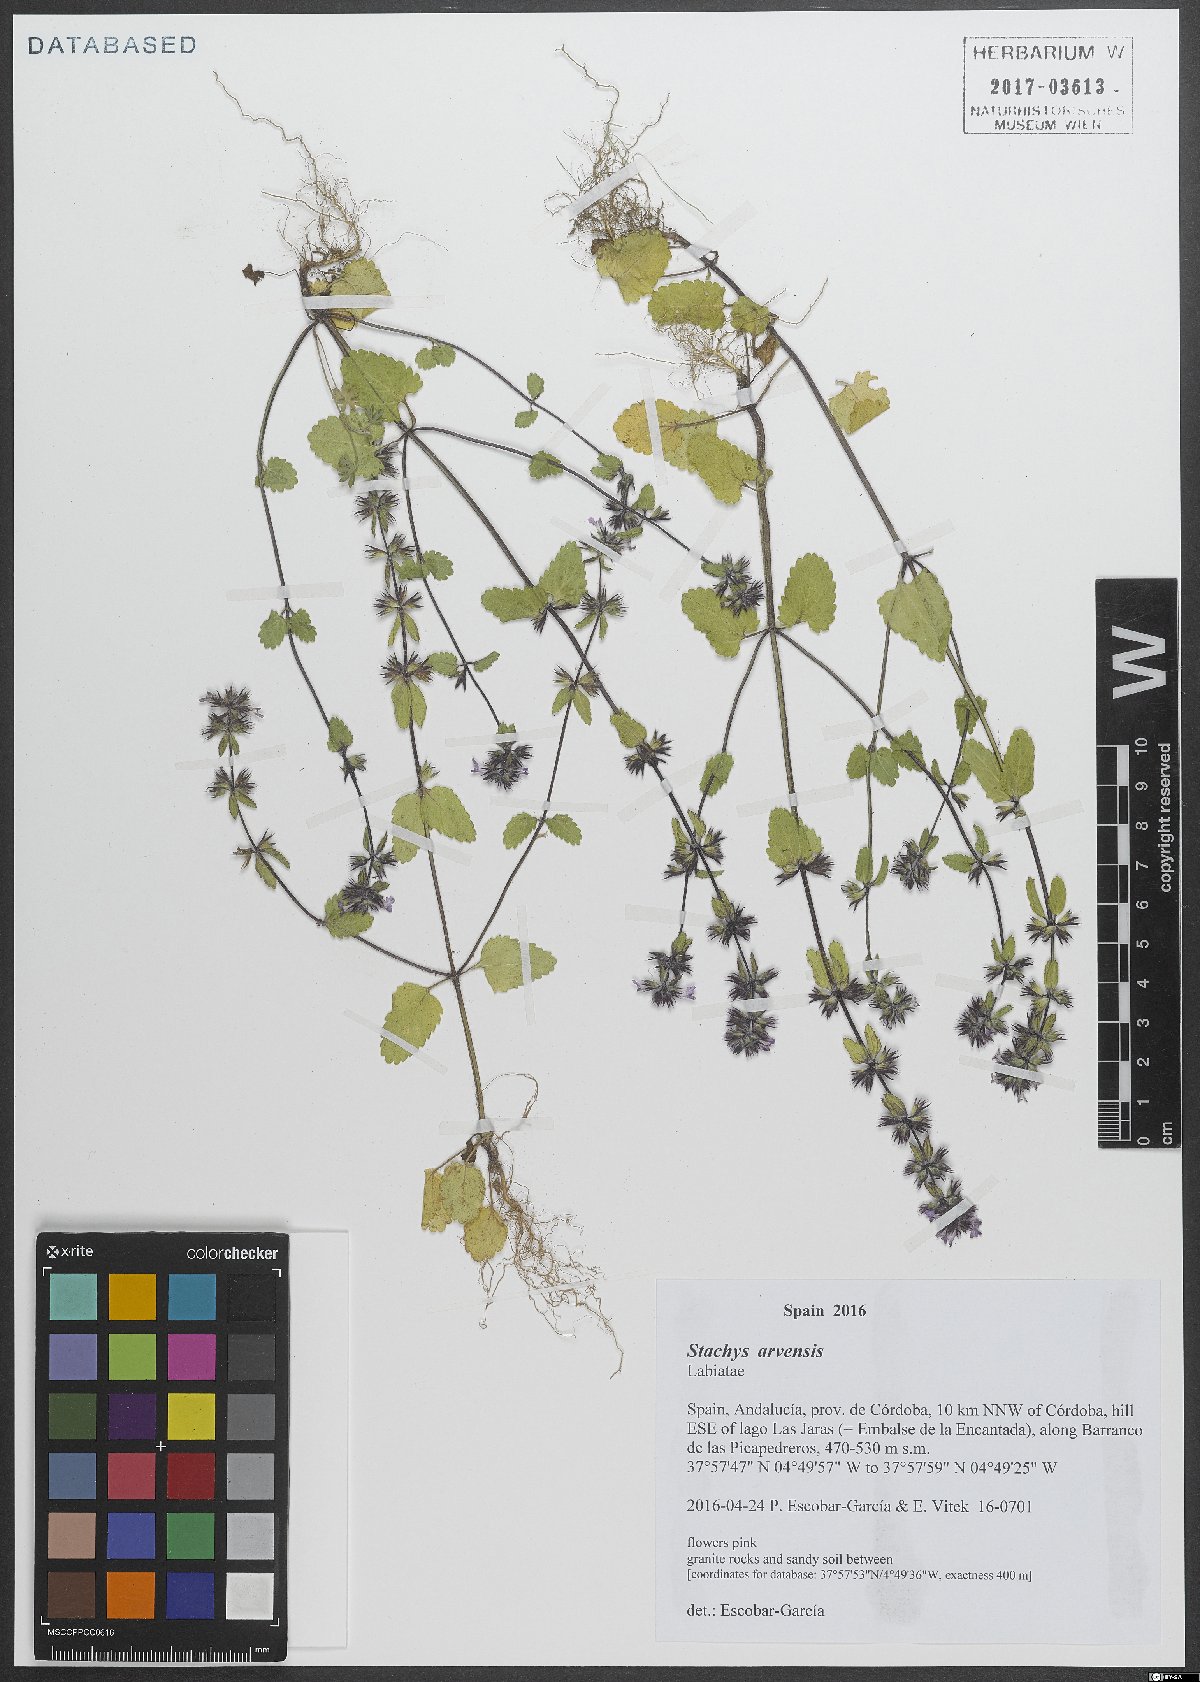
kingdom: Plantae
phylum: Tracheophyta
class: Magnoliopsida
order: Lamiales
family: Lamiaceae
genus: Stachys
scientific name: Stachys arvensis
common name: Field woundwort
